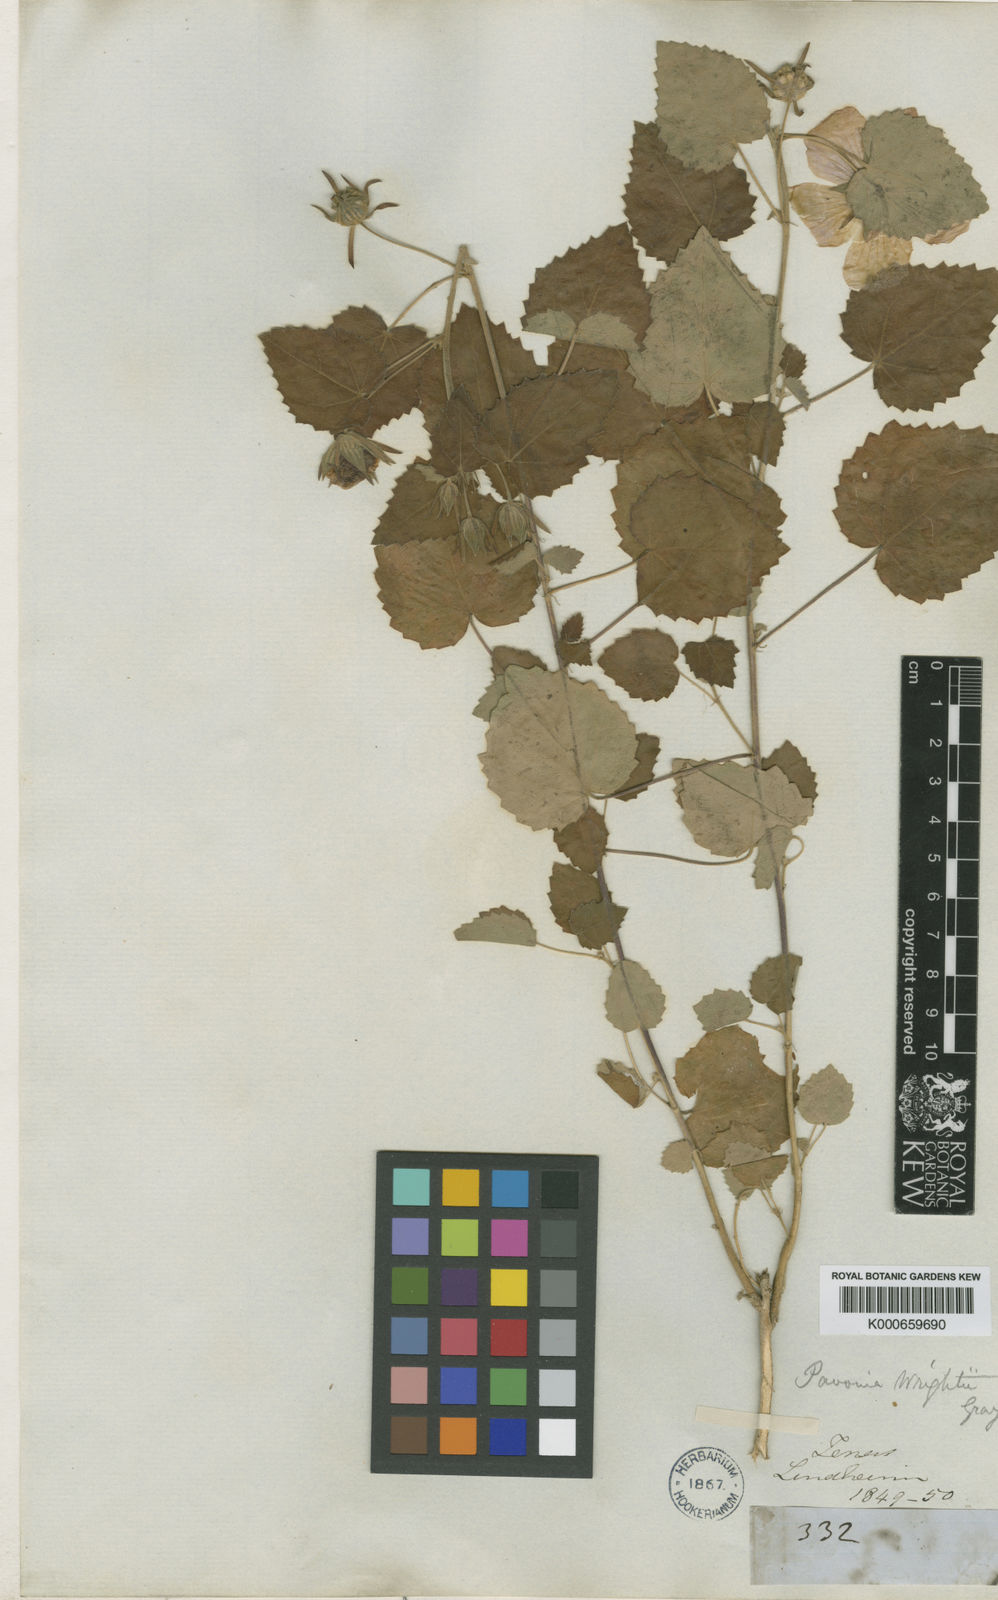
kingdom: Plantae
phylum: Tracheophyta
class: Magnoliopsida
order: Malvales
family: Malvaceae
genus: Pavonia
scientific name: Pavonia lasiopetala
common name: Texas swamp-mallow
